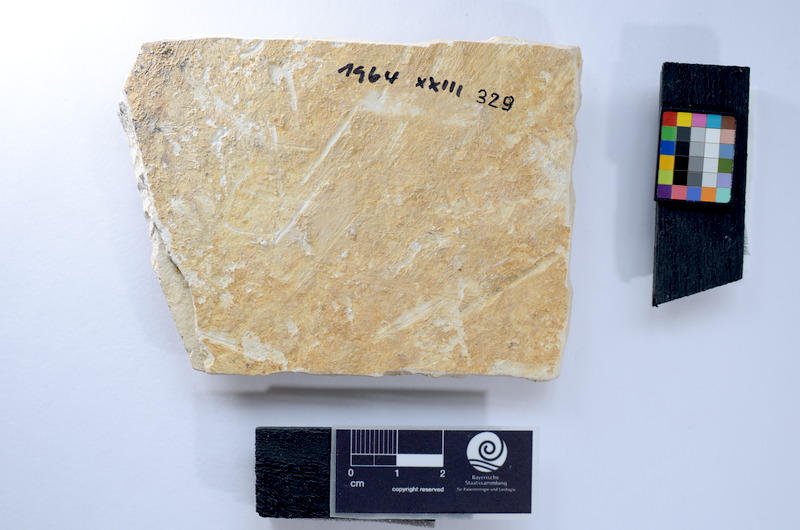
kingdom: Animalia
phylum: Chordata
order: Salmoniformes
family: Orthogonikleithridae
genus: Leptolepides
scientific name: Leptolepides
